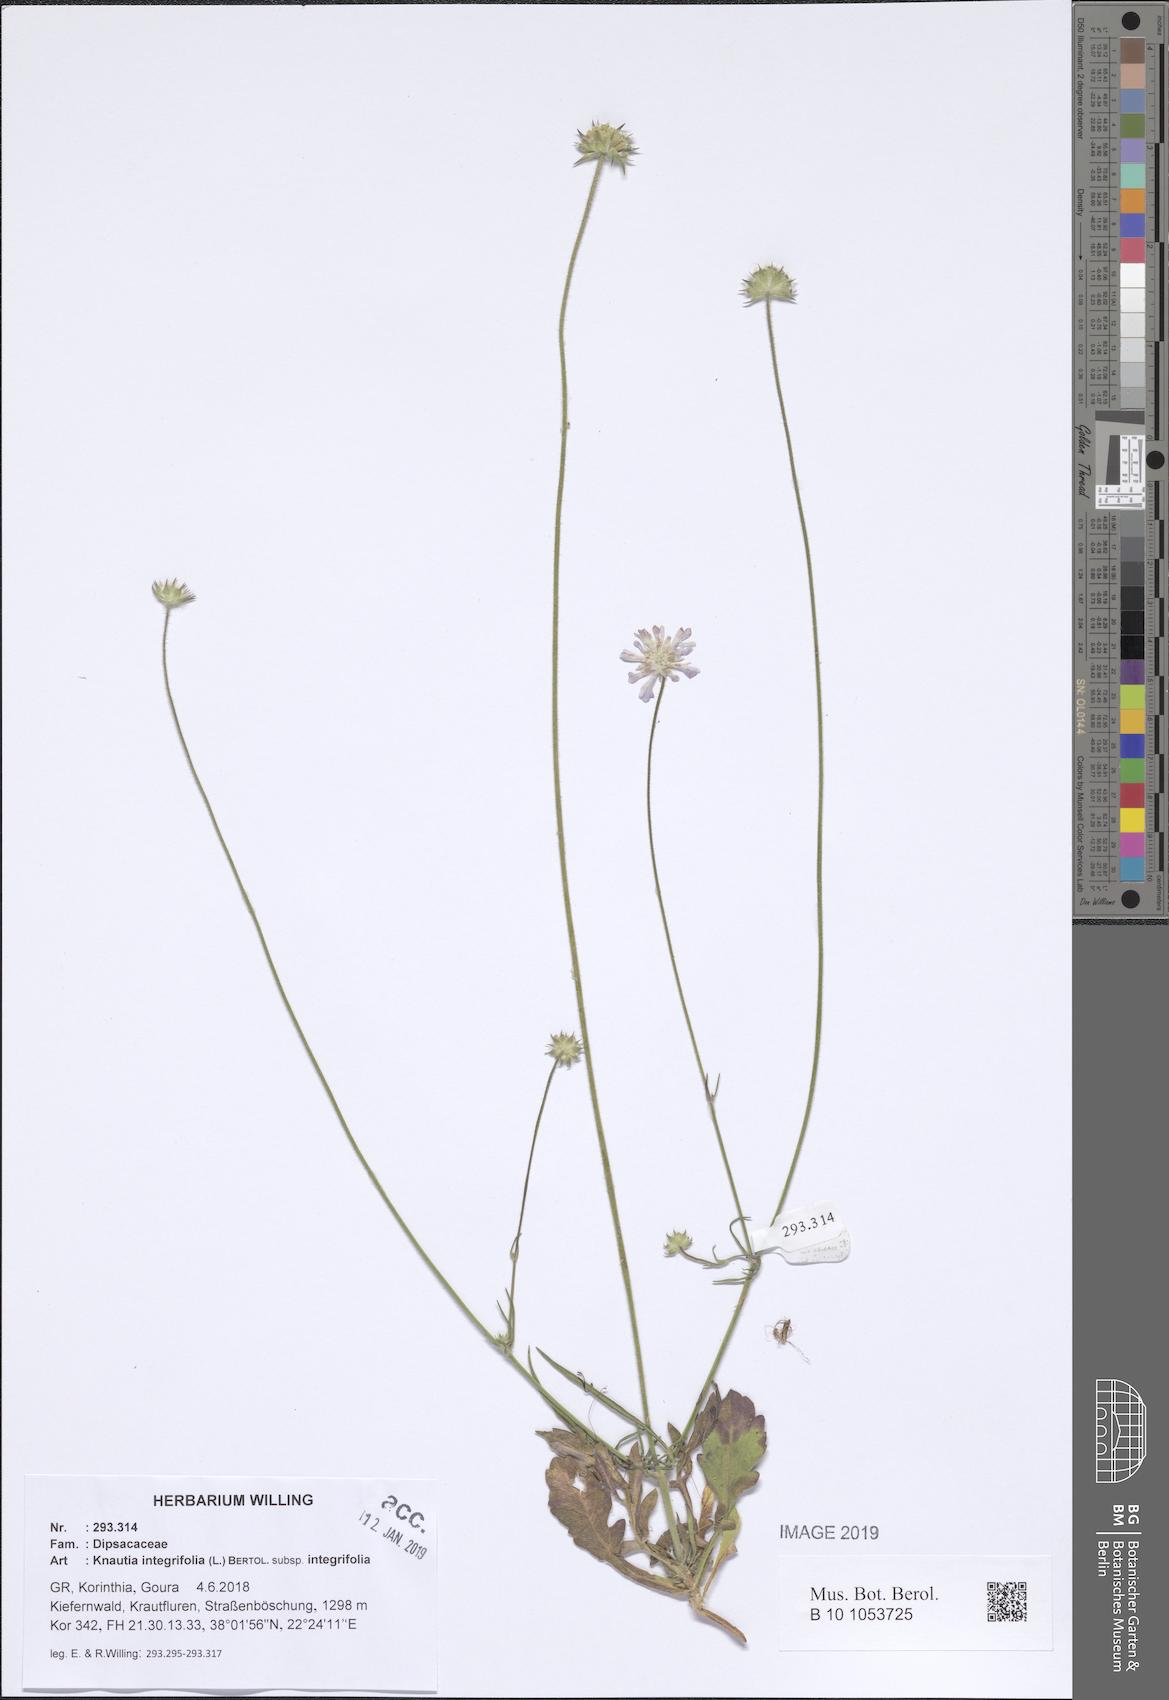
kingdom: Plantae
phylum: Tracheophyta
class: Magnoliopsida
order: Dipsacales
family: Caprifoliaceae
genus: Knautia
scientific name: Knautia integrifolia
